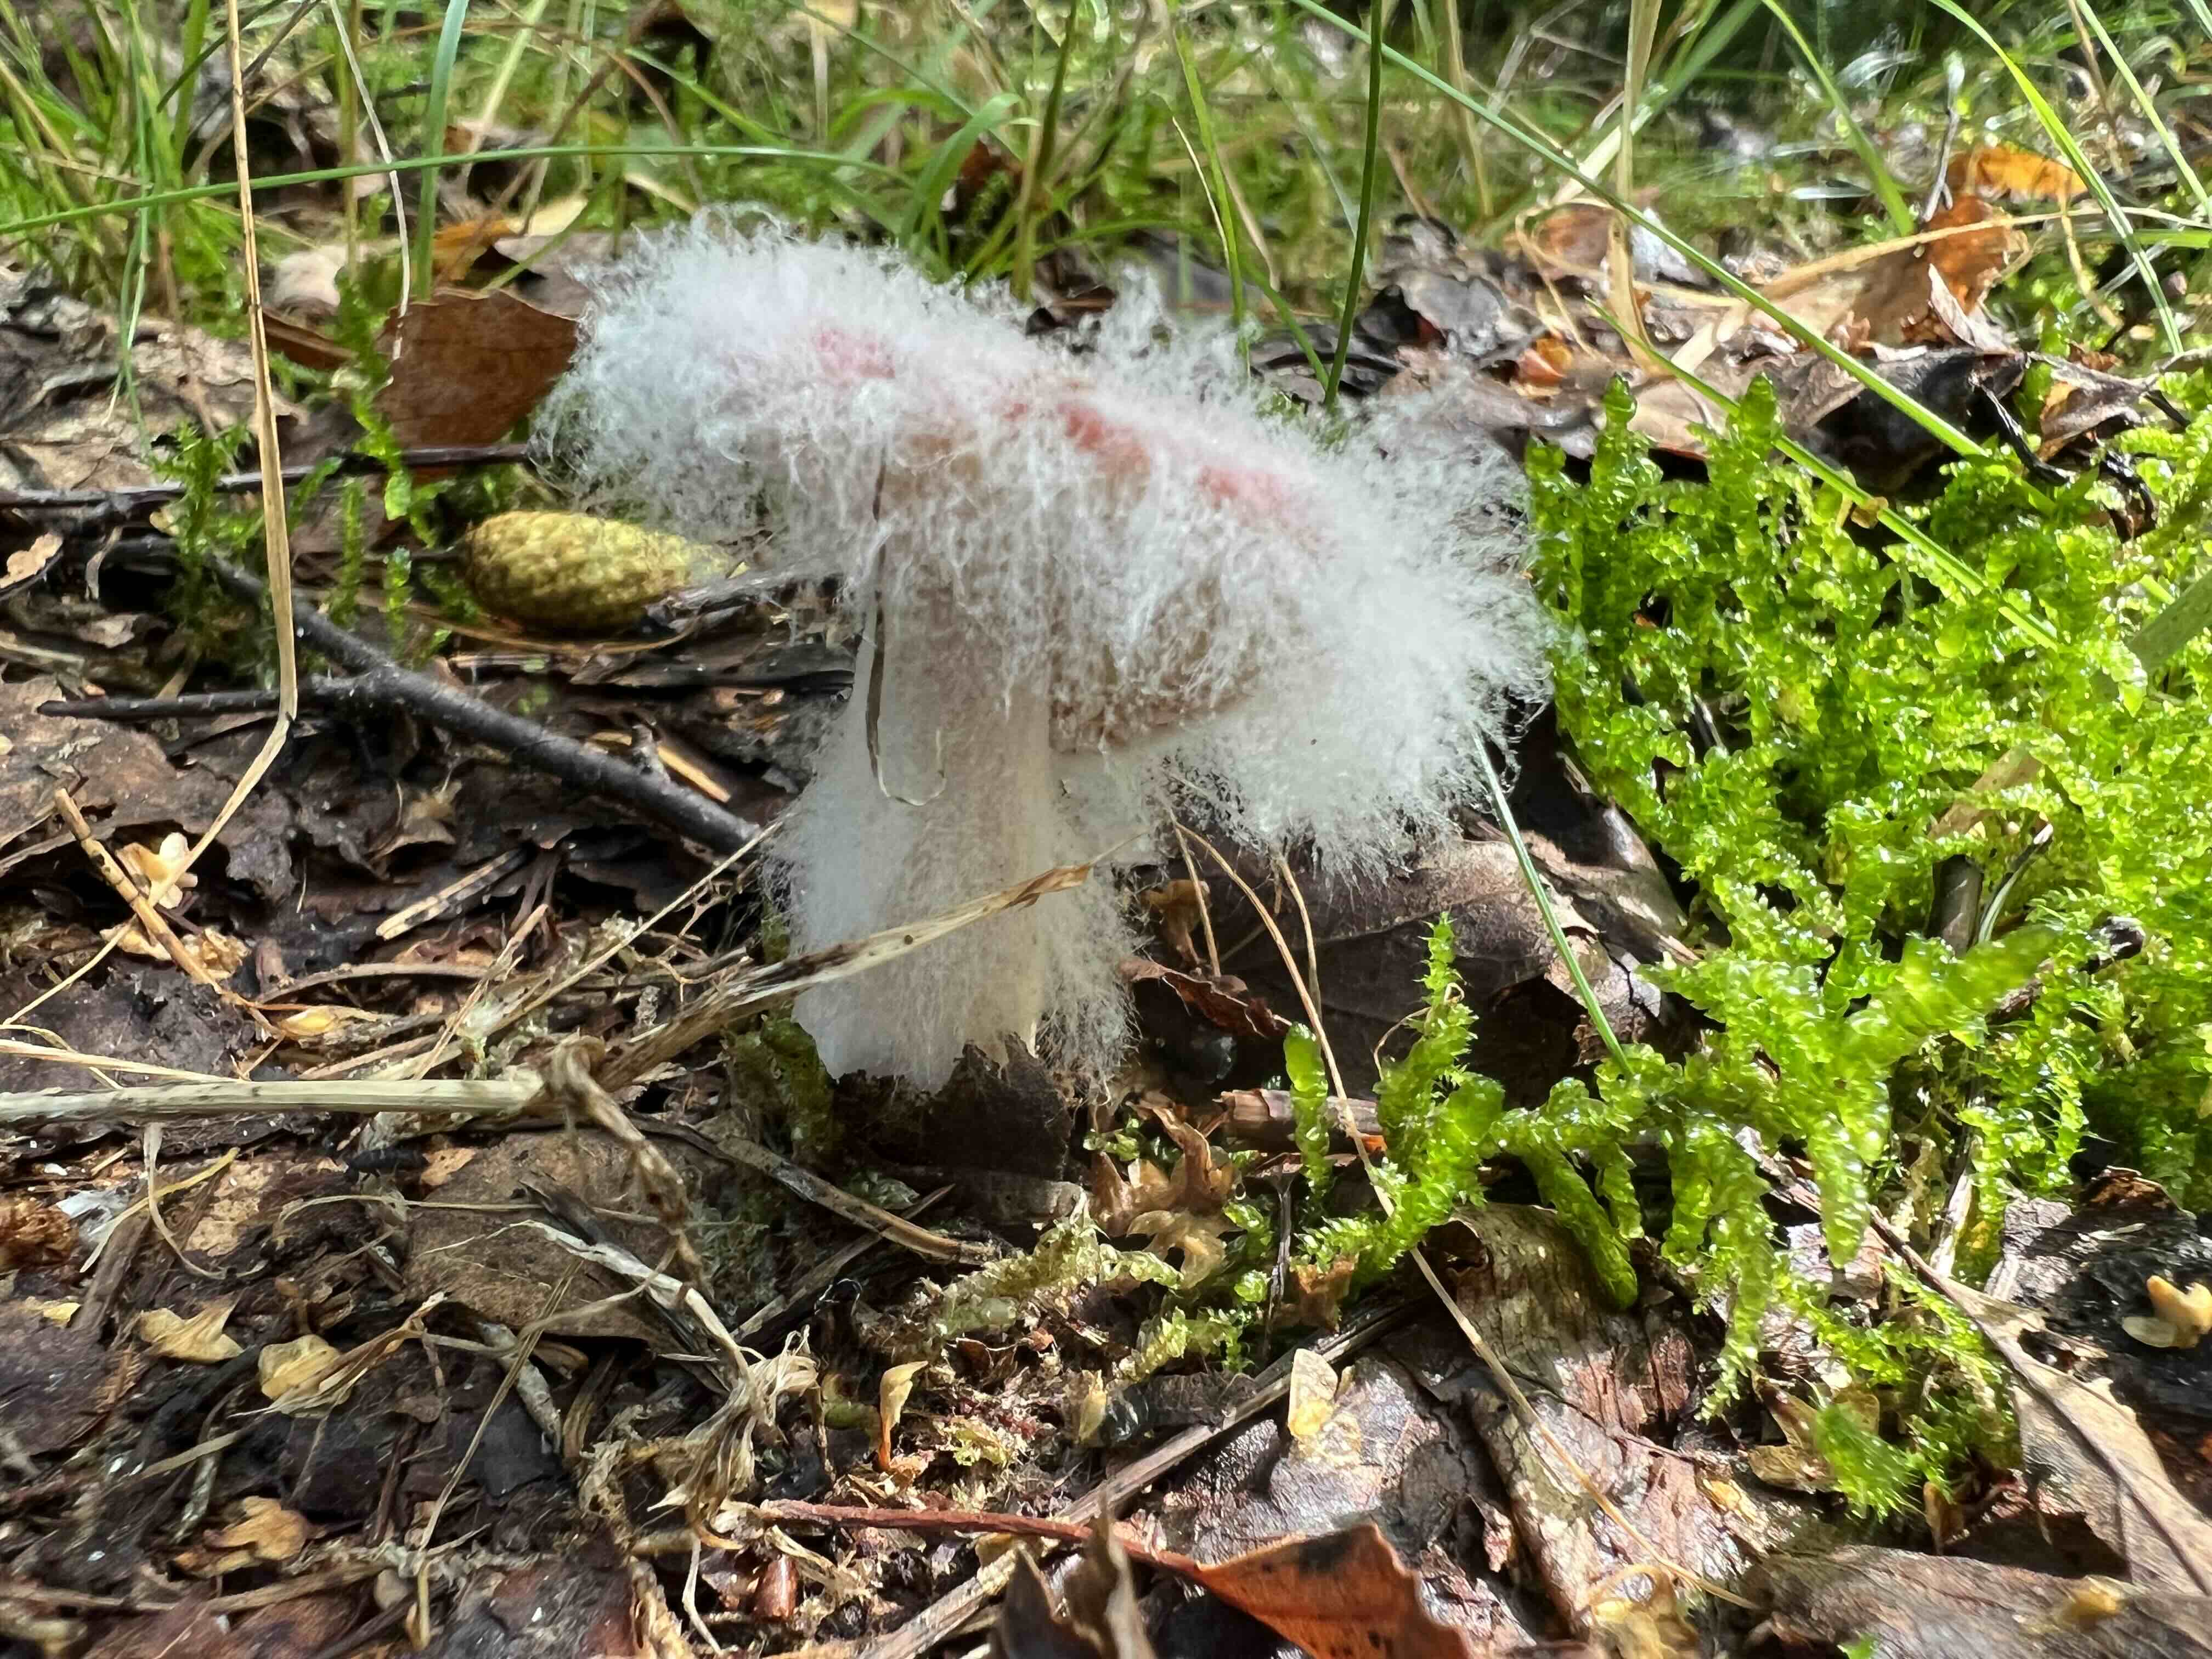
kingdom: Fungi
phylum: Mucoromycota
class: Mucoromycetes
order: Mucorales
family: Rhizopodaceae
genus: Syzygites
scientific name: Syzygites megalocarpus
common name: nissenål
